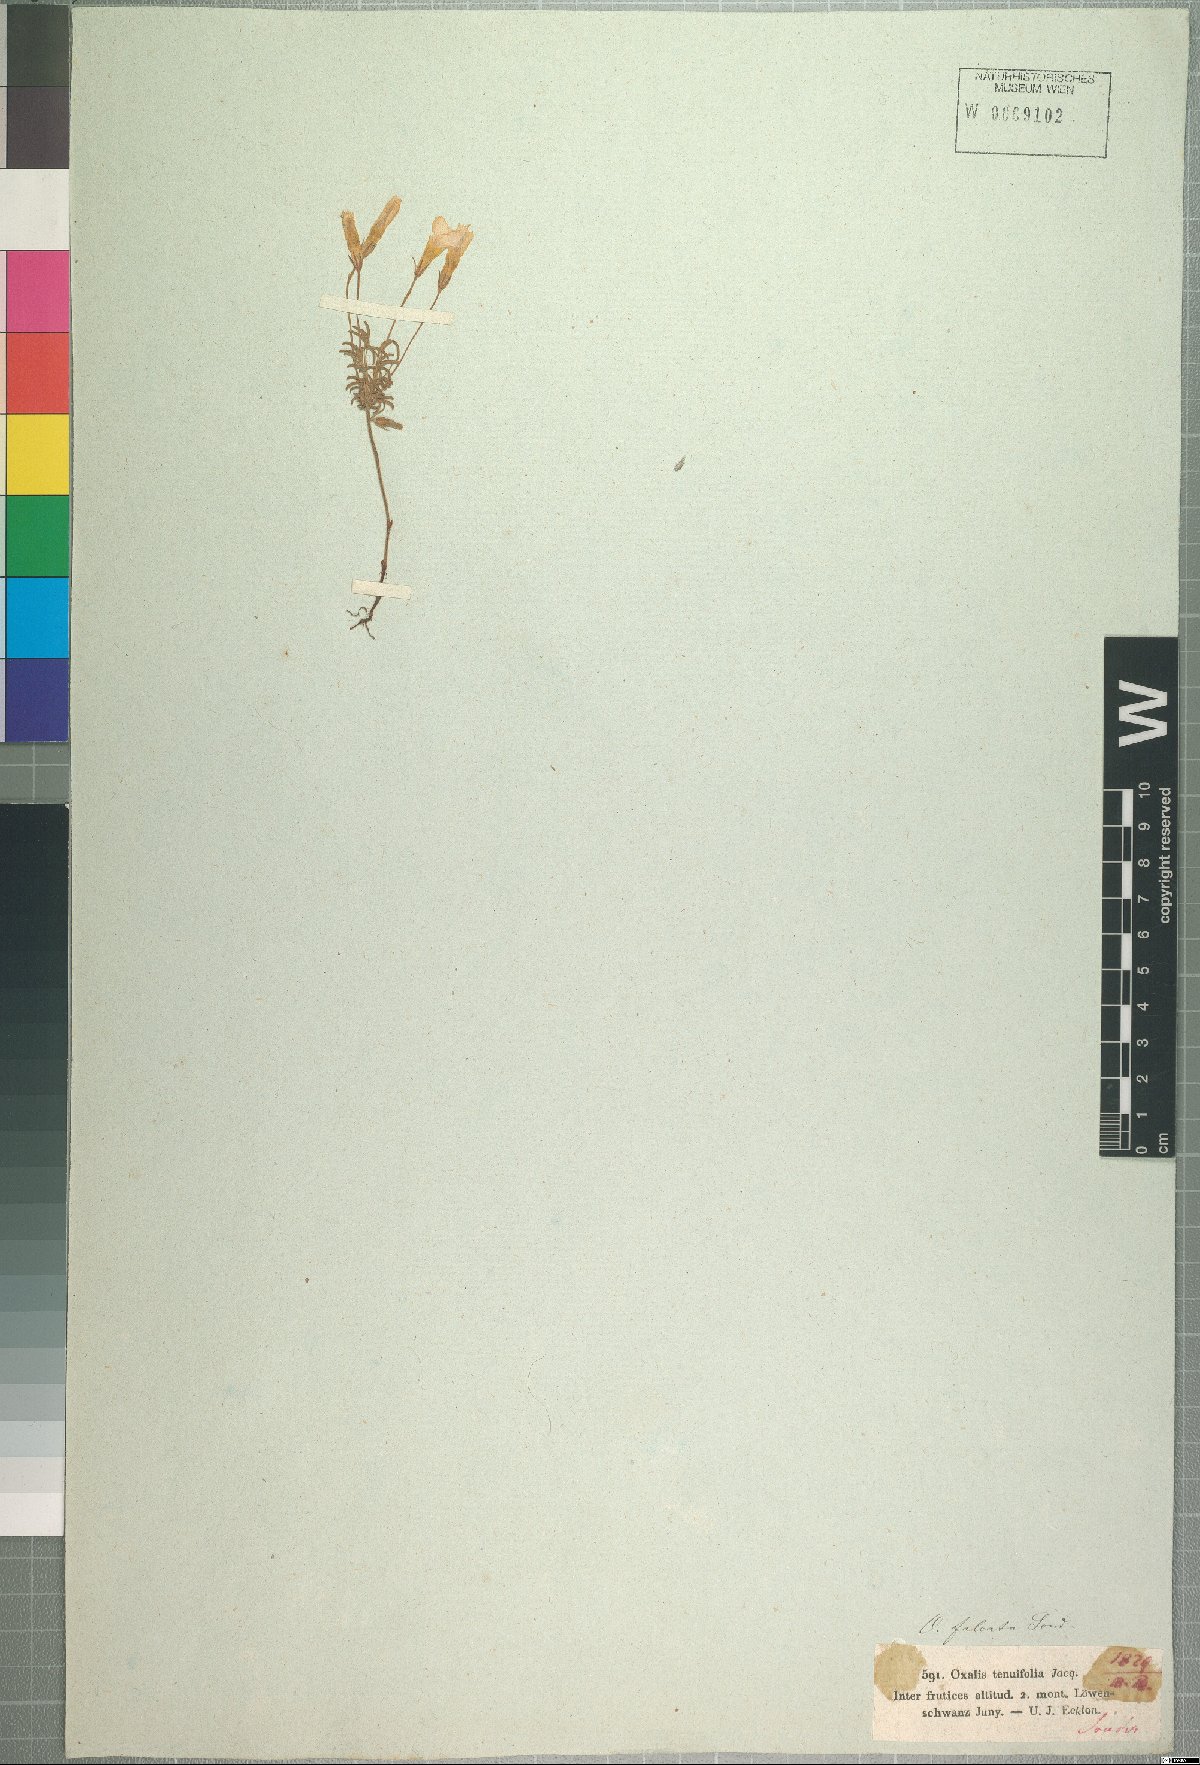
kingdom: Plantae
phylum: Tracheophyta
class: Magnoliopsida
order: Oxalidales
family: Oxalidaceae
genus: Oxalis
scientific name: Oxalis falcatula
